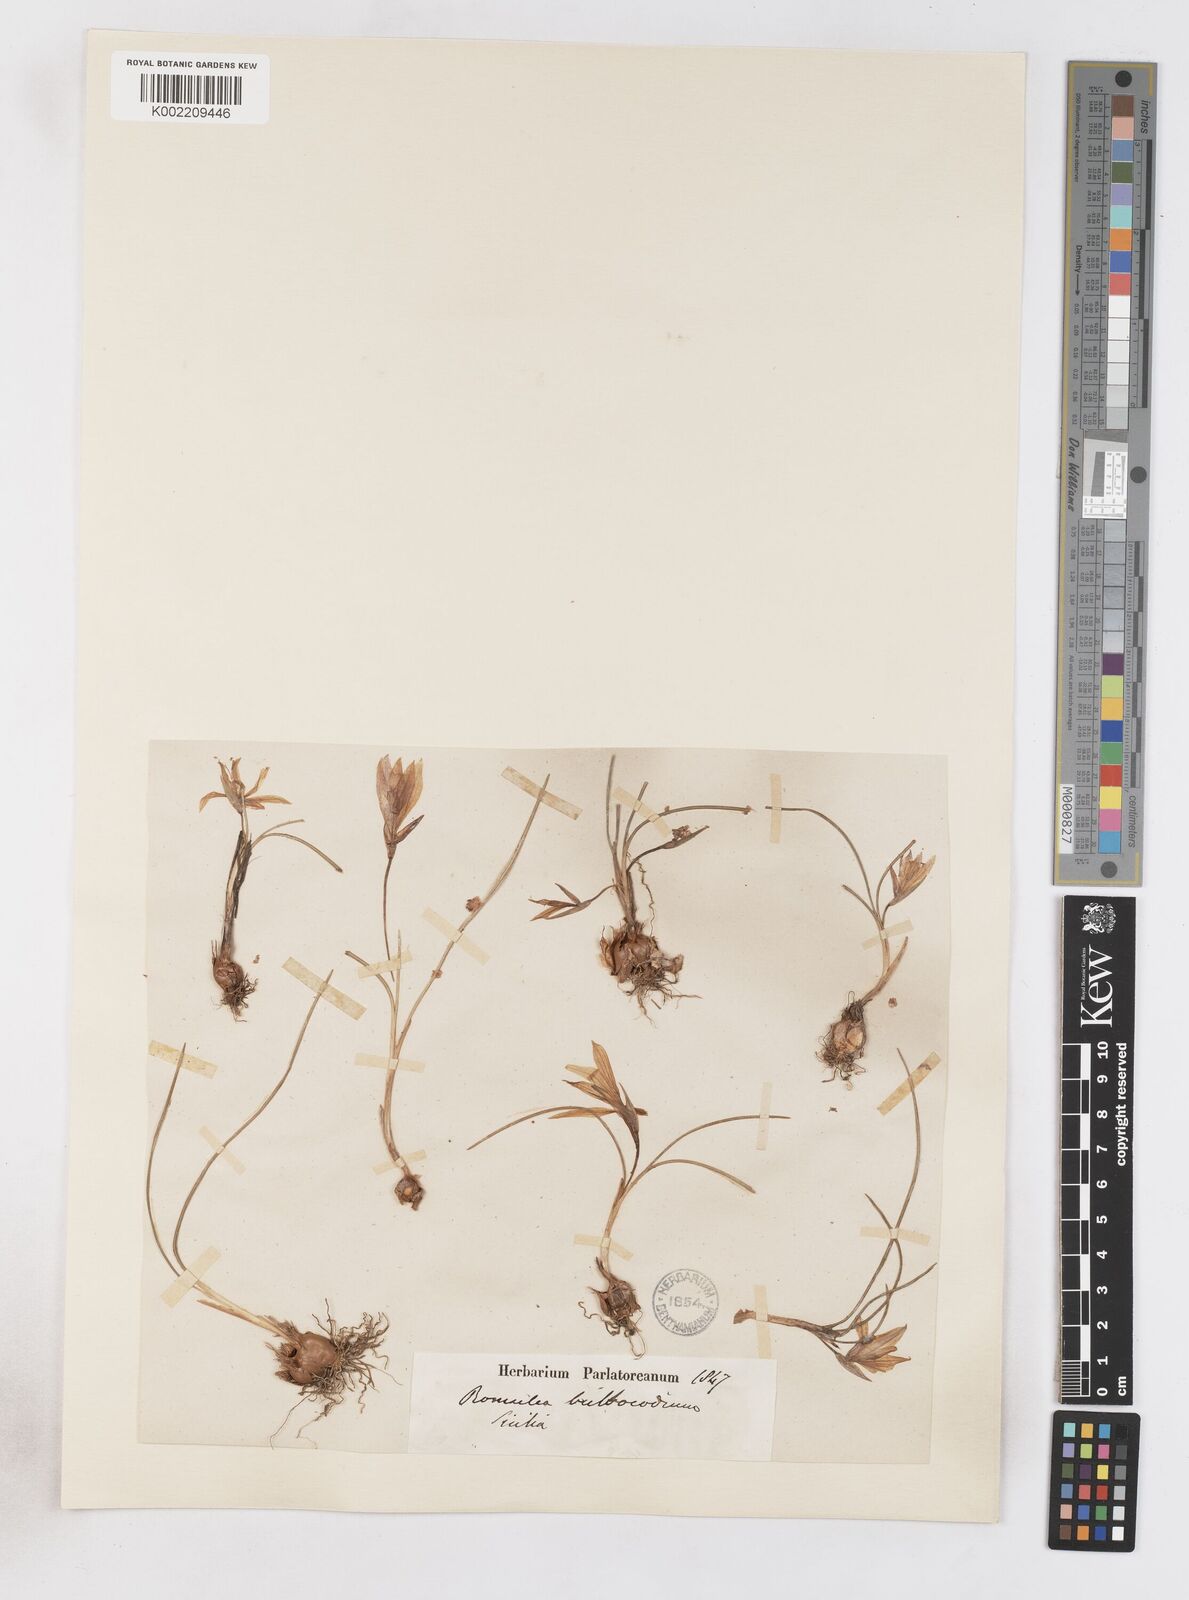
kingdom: Plantae
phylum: Tracheophyta
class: Liliopsida
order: Asparagales
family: Iridaceae
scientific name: Iridaceae
